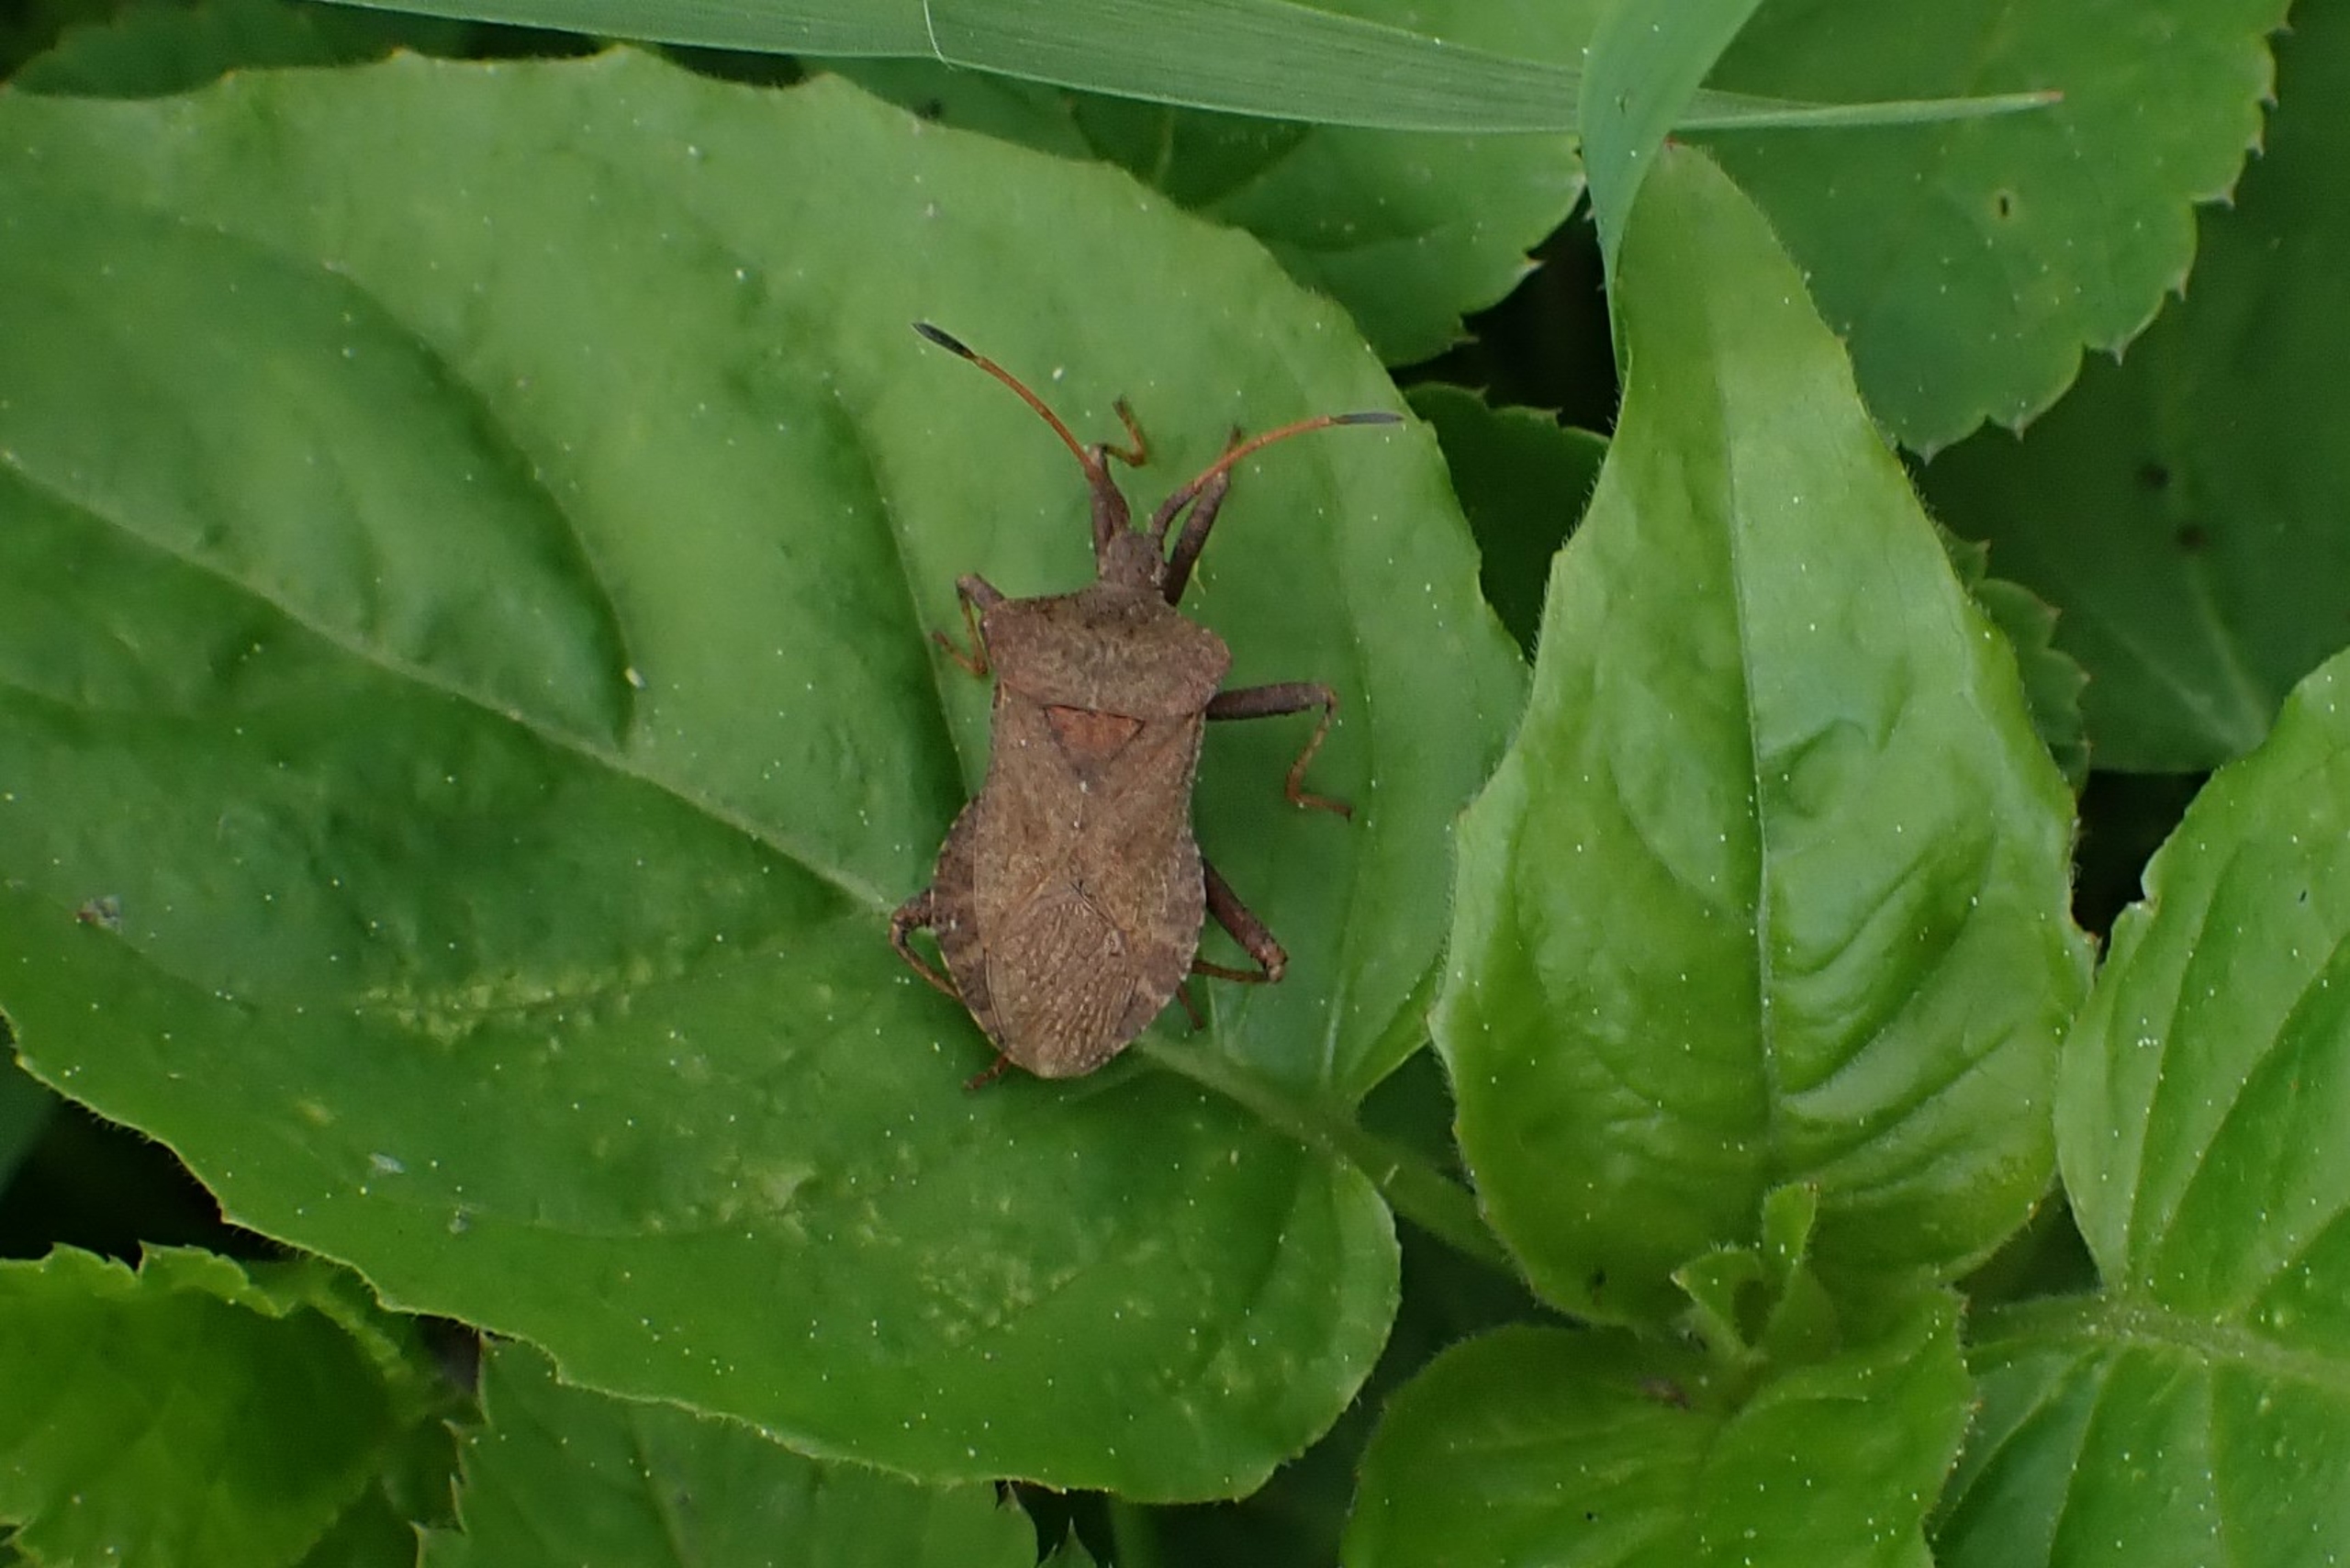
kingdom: Animalia
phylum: Arthropoda
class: Insecta
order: Hemiptera
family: Coreidae
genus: Coreus
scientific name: Coreus marginatus
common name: Skræppetæge
